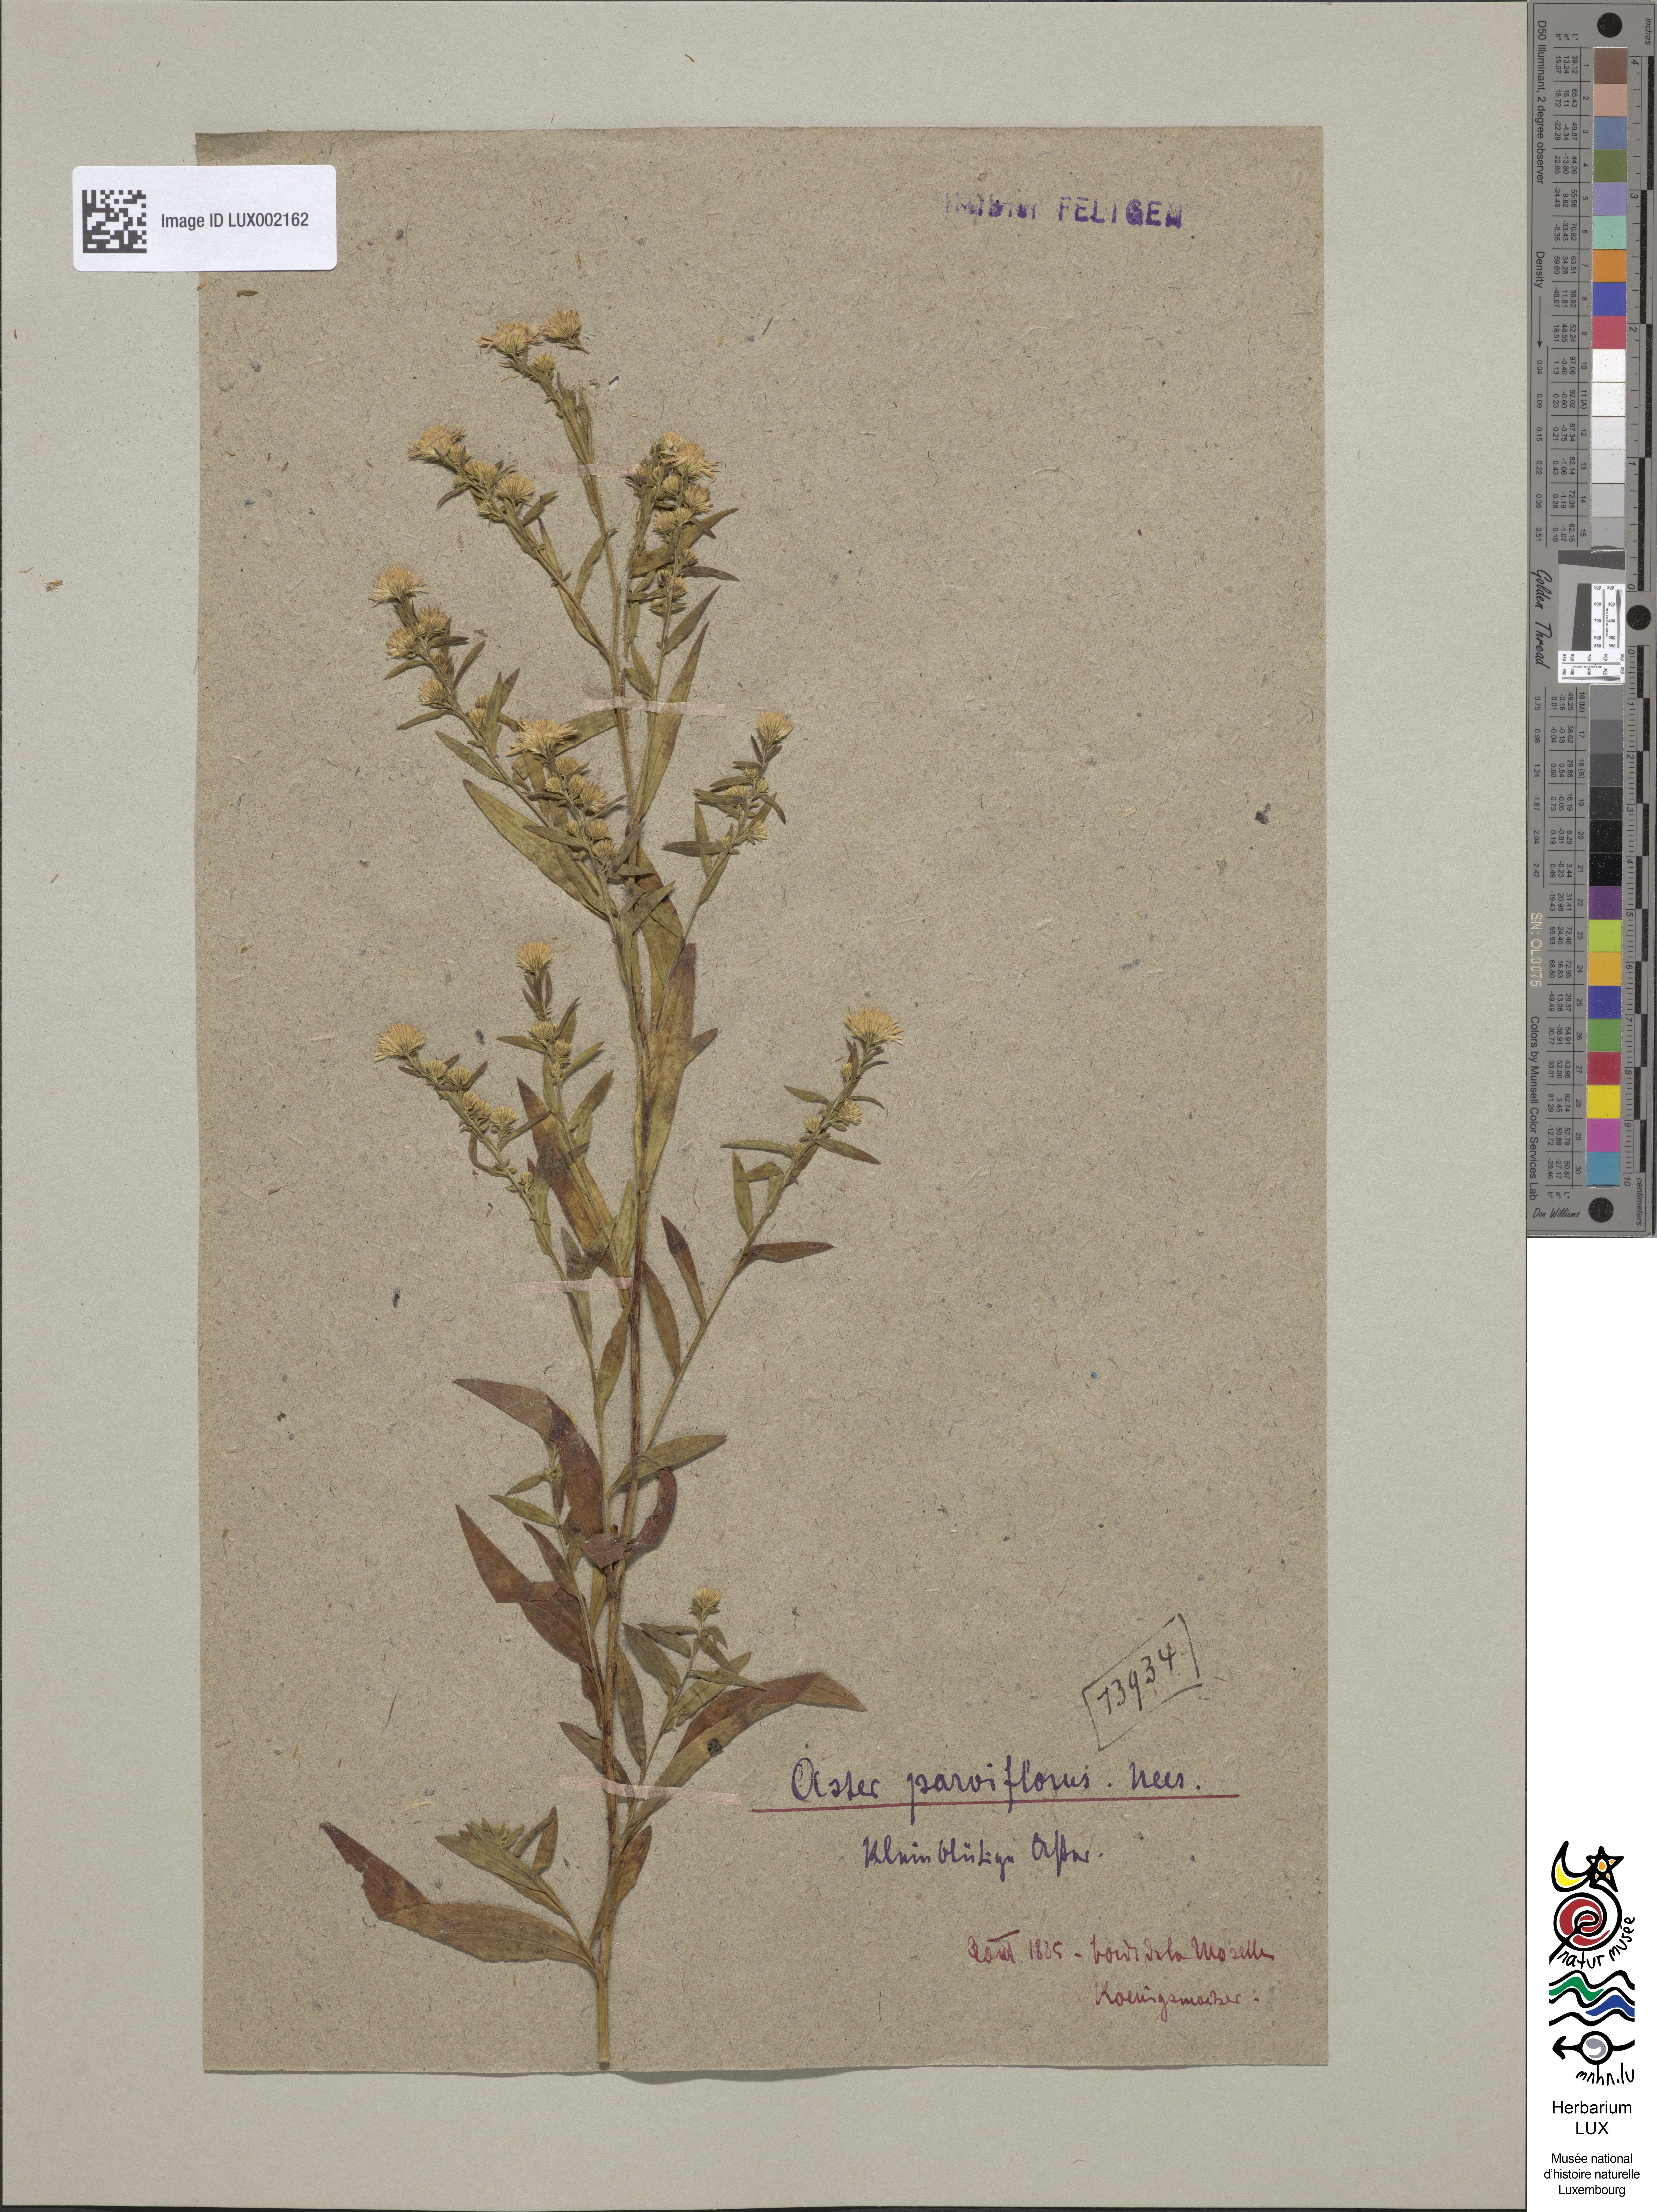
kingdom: Plantae
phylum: Tracheophyta
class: Magnoliopsida
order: Asterales
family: Asteraceae
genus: Symphyotrichum
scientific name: Symphyotrichum tradescantii
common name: Shore aster
